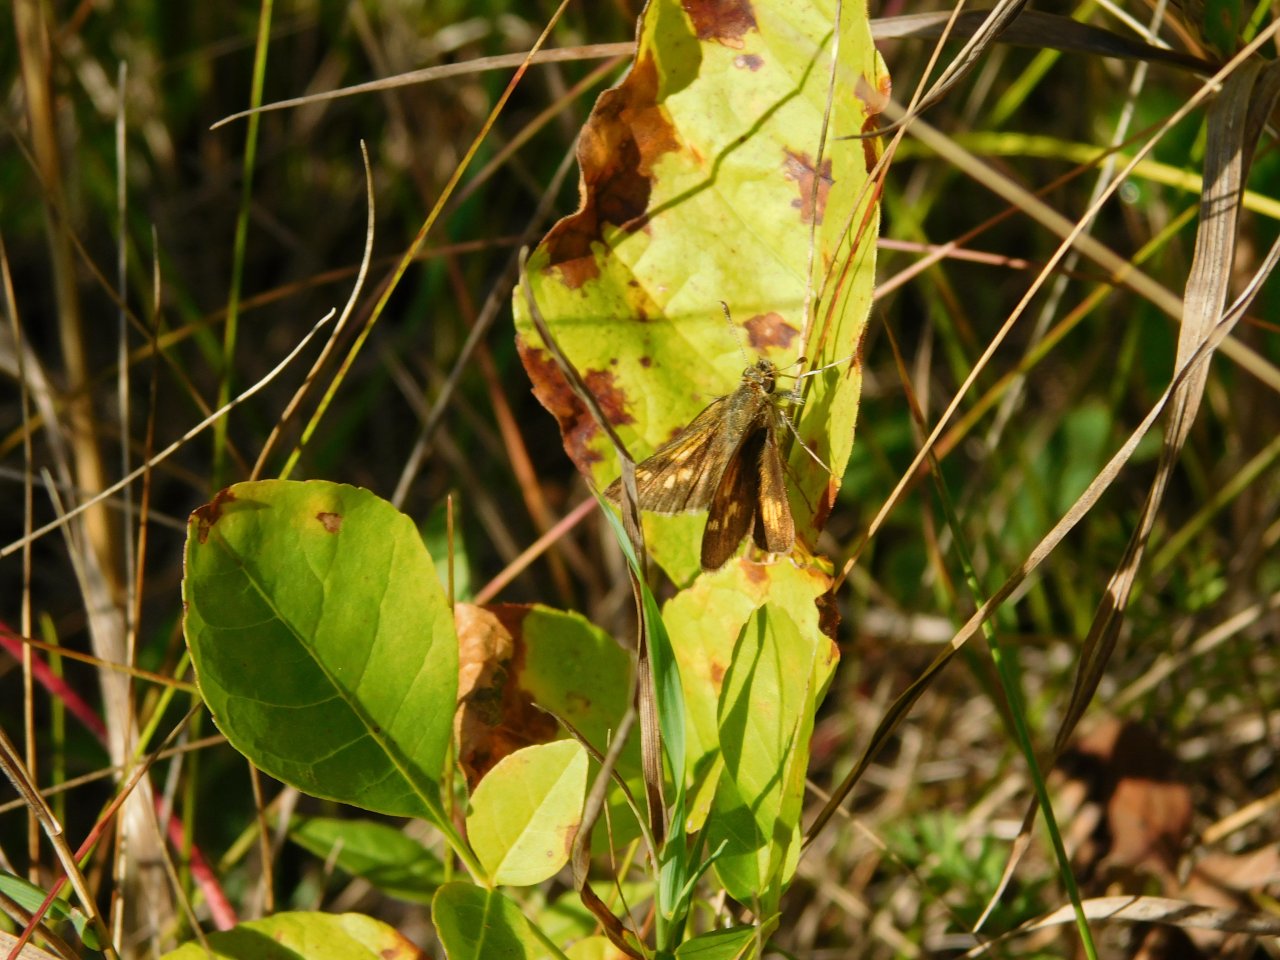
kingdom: Animalia
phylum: Arthropoda
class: Insecta
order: Lepidoptera
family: Hesperiidae
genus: Polites
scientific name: Polites coras
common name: Peck's Skipper
